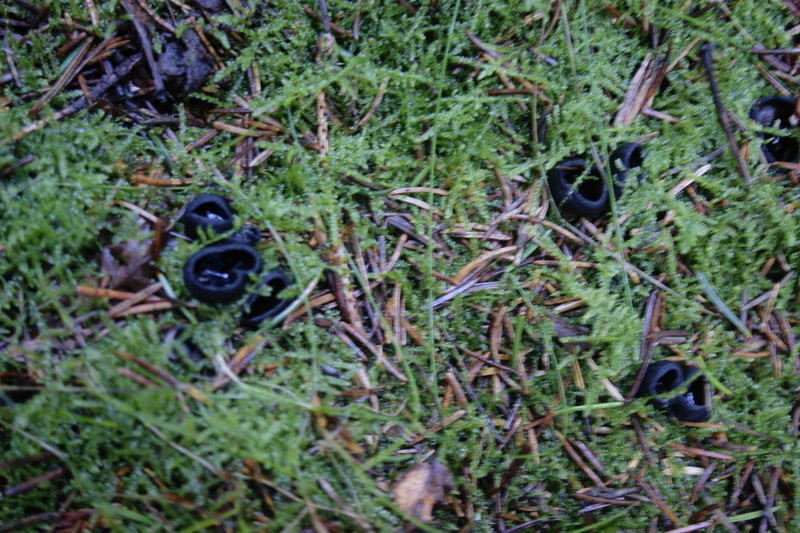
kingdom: Fungi
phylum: Ascomycota
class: Pezizomycetes
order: Pezizales
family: Sarcosomataceae
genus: Pseudoplectania
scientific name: Pseudoplectania nigrella
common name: almindelig sortbæger
